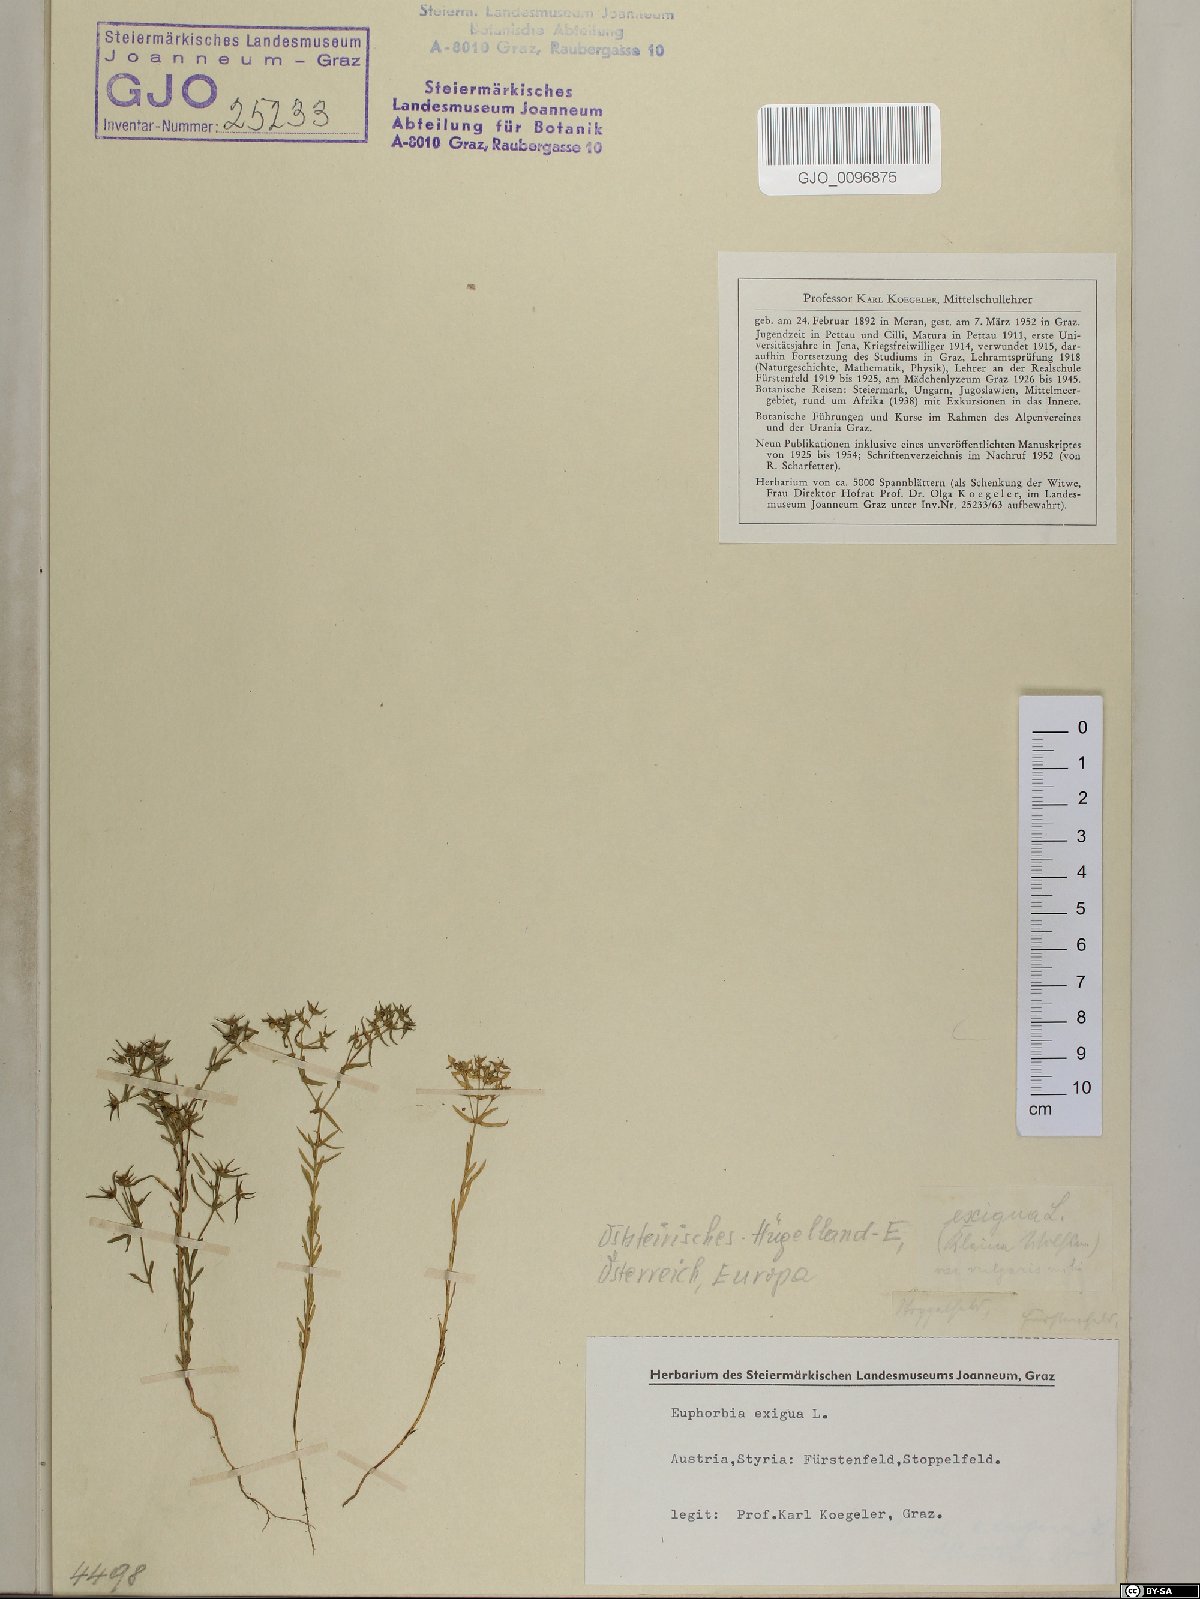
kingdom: Plantae
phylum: Tracheophyta
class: Magnoliopsida
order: Malpighiales
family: Euphorbiaceae
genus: Euphorbia
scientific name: Euphorbia exigua
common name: Dwarf spurge
